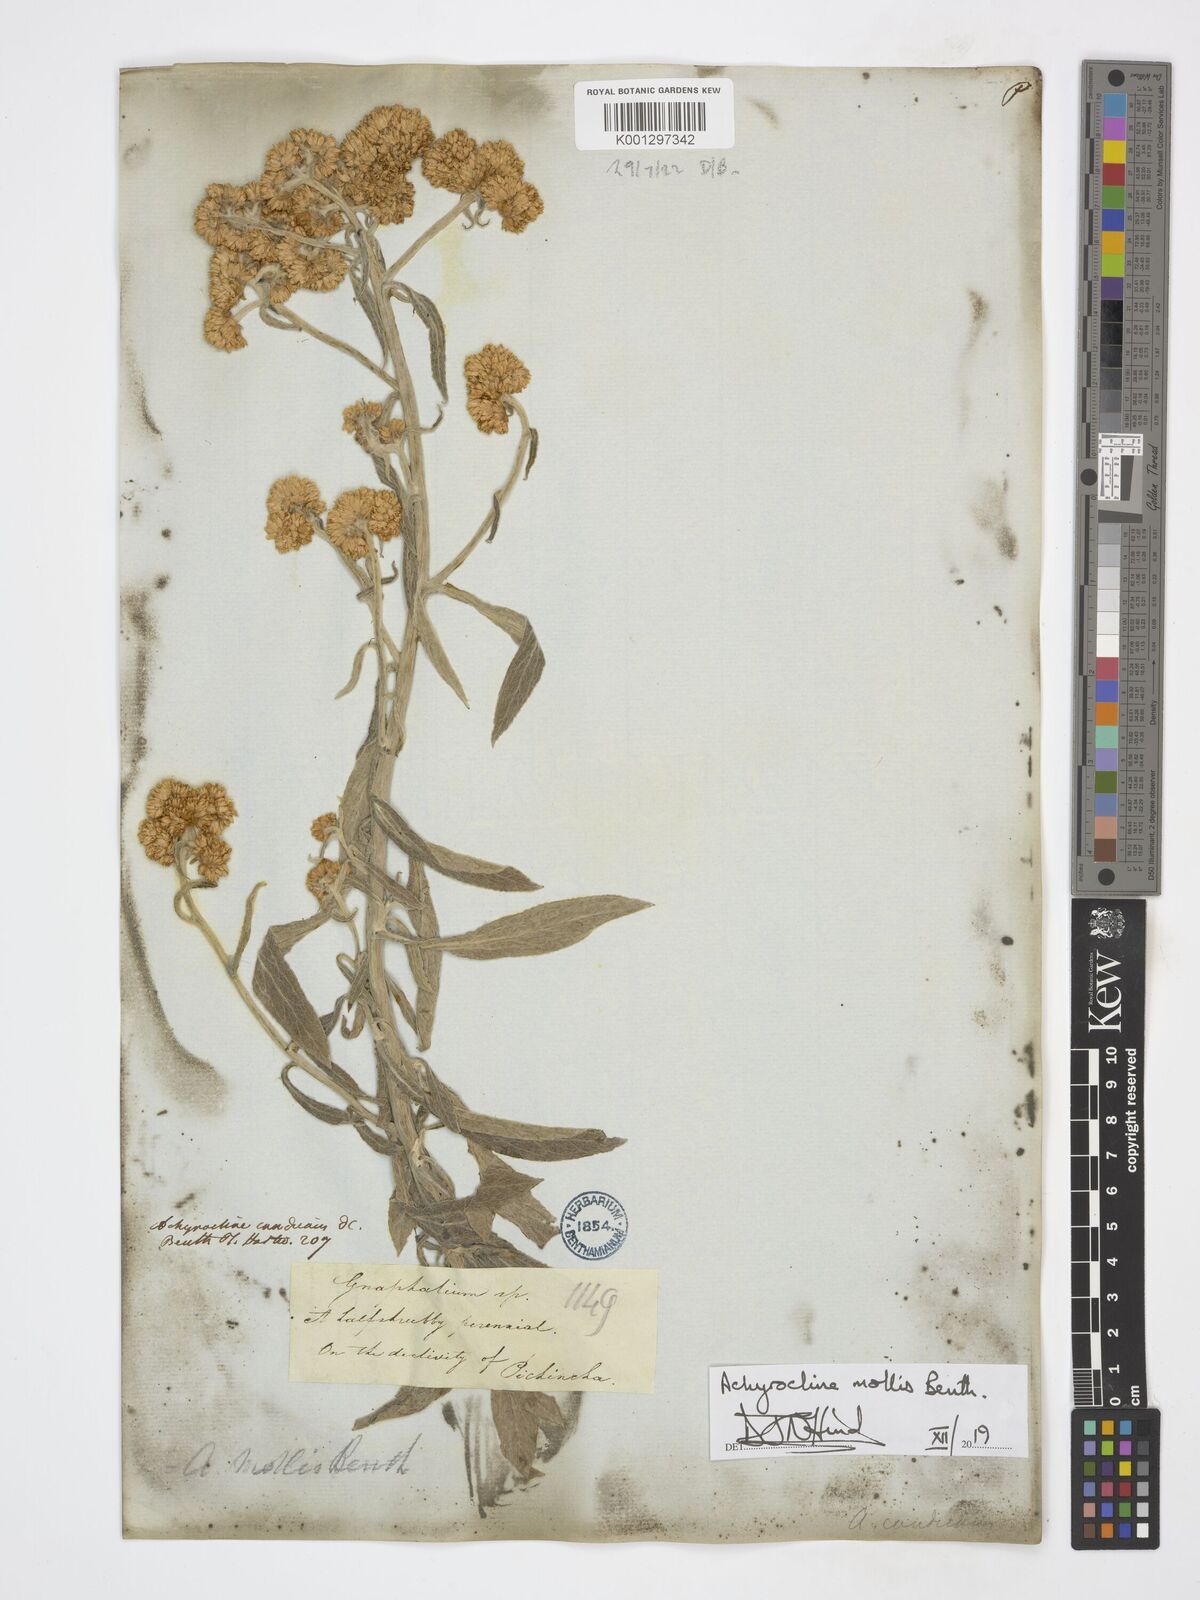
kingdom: Plantae
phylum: Tracheophyta
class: Magnoliopsida
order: Asterales
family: Asteraceae
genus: Achyrocline
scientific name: Achyrocline mollis
